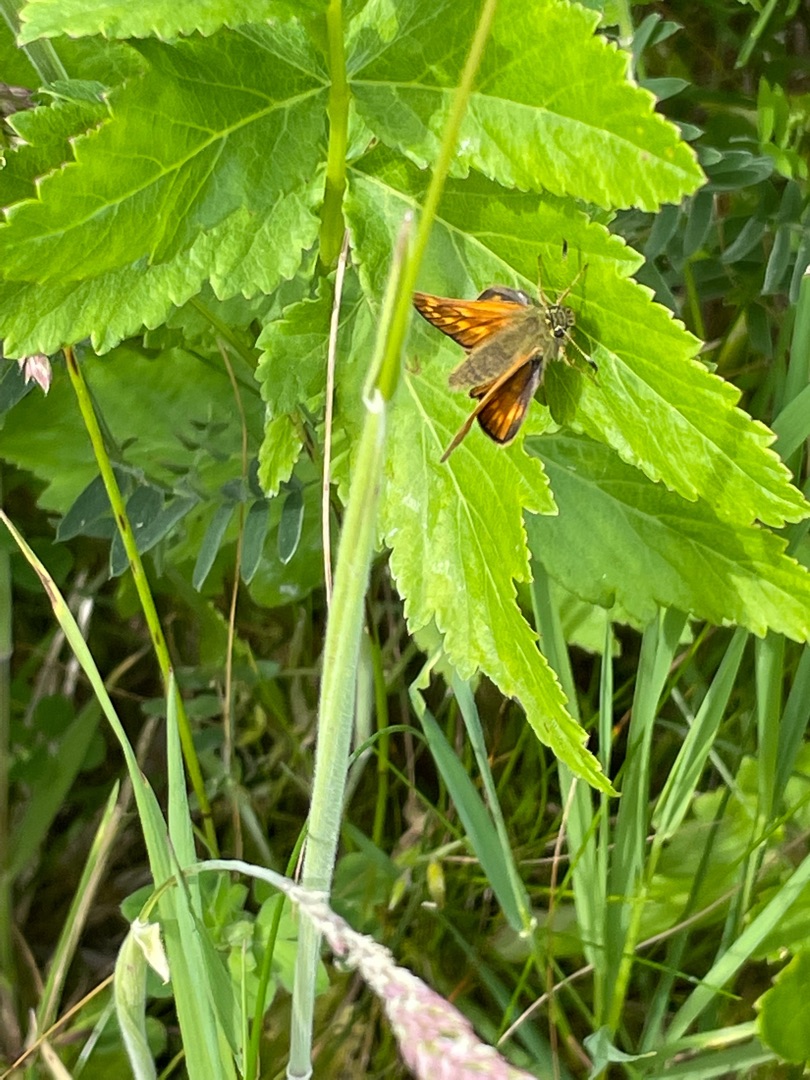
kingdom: Animalia
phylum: Arthropoda
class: Insecta
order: Lepidoptera
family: Hesperiidae
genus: Ochlodes
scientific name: Ochlodes venata
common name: Stor bredpande
